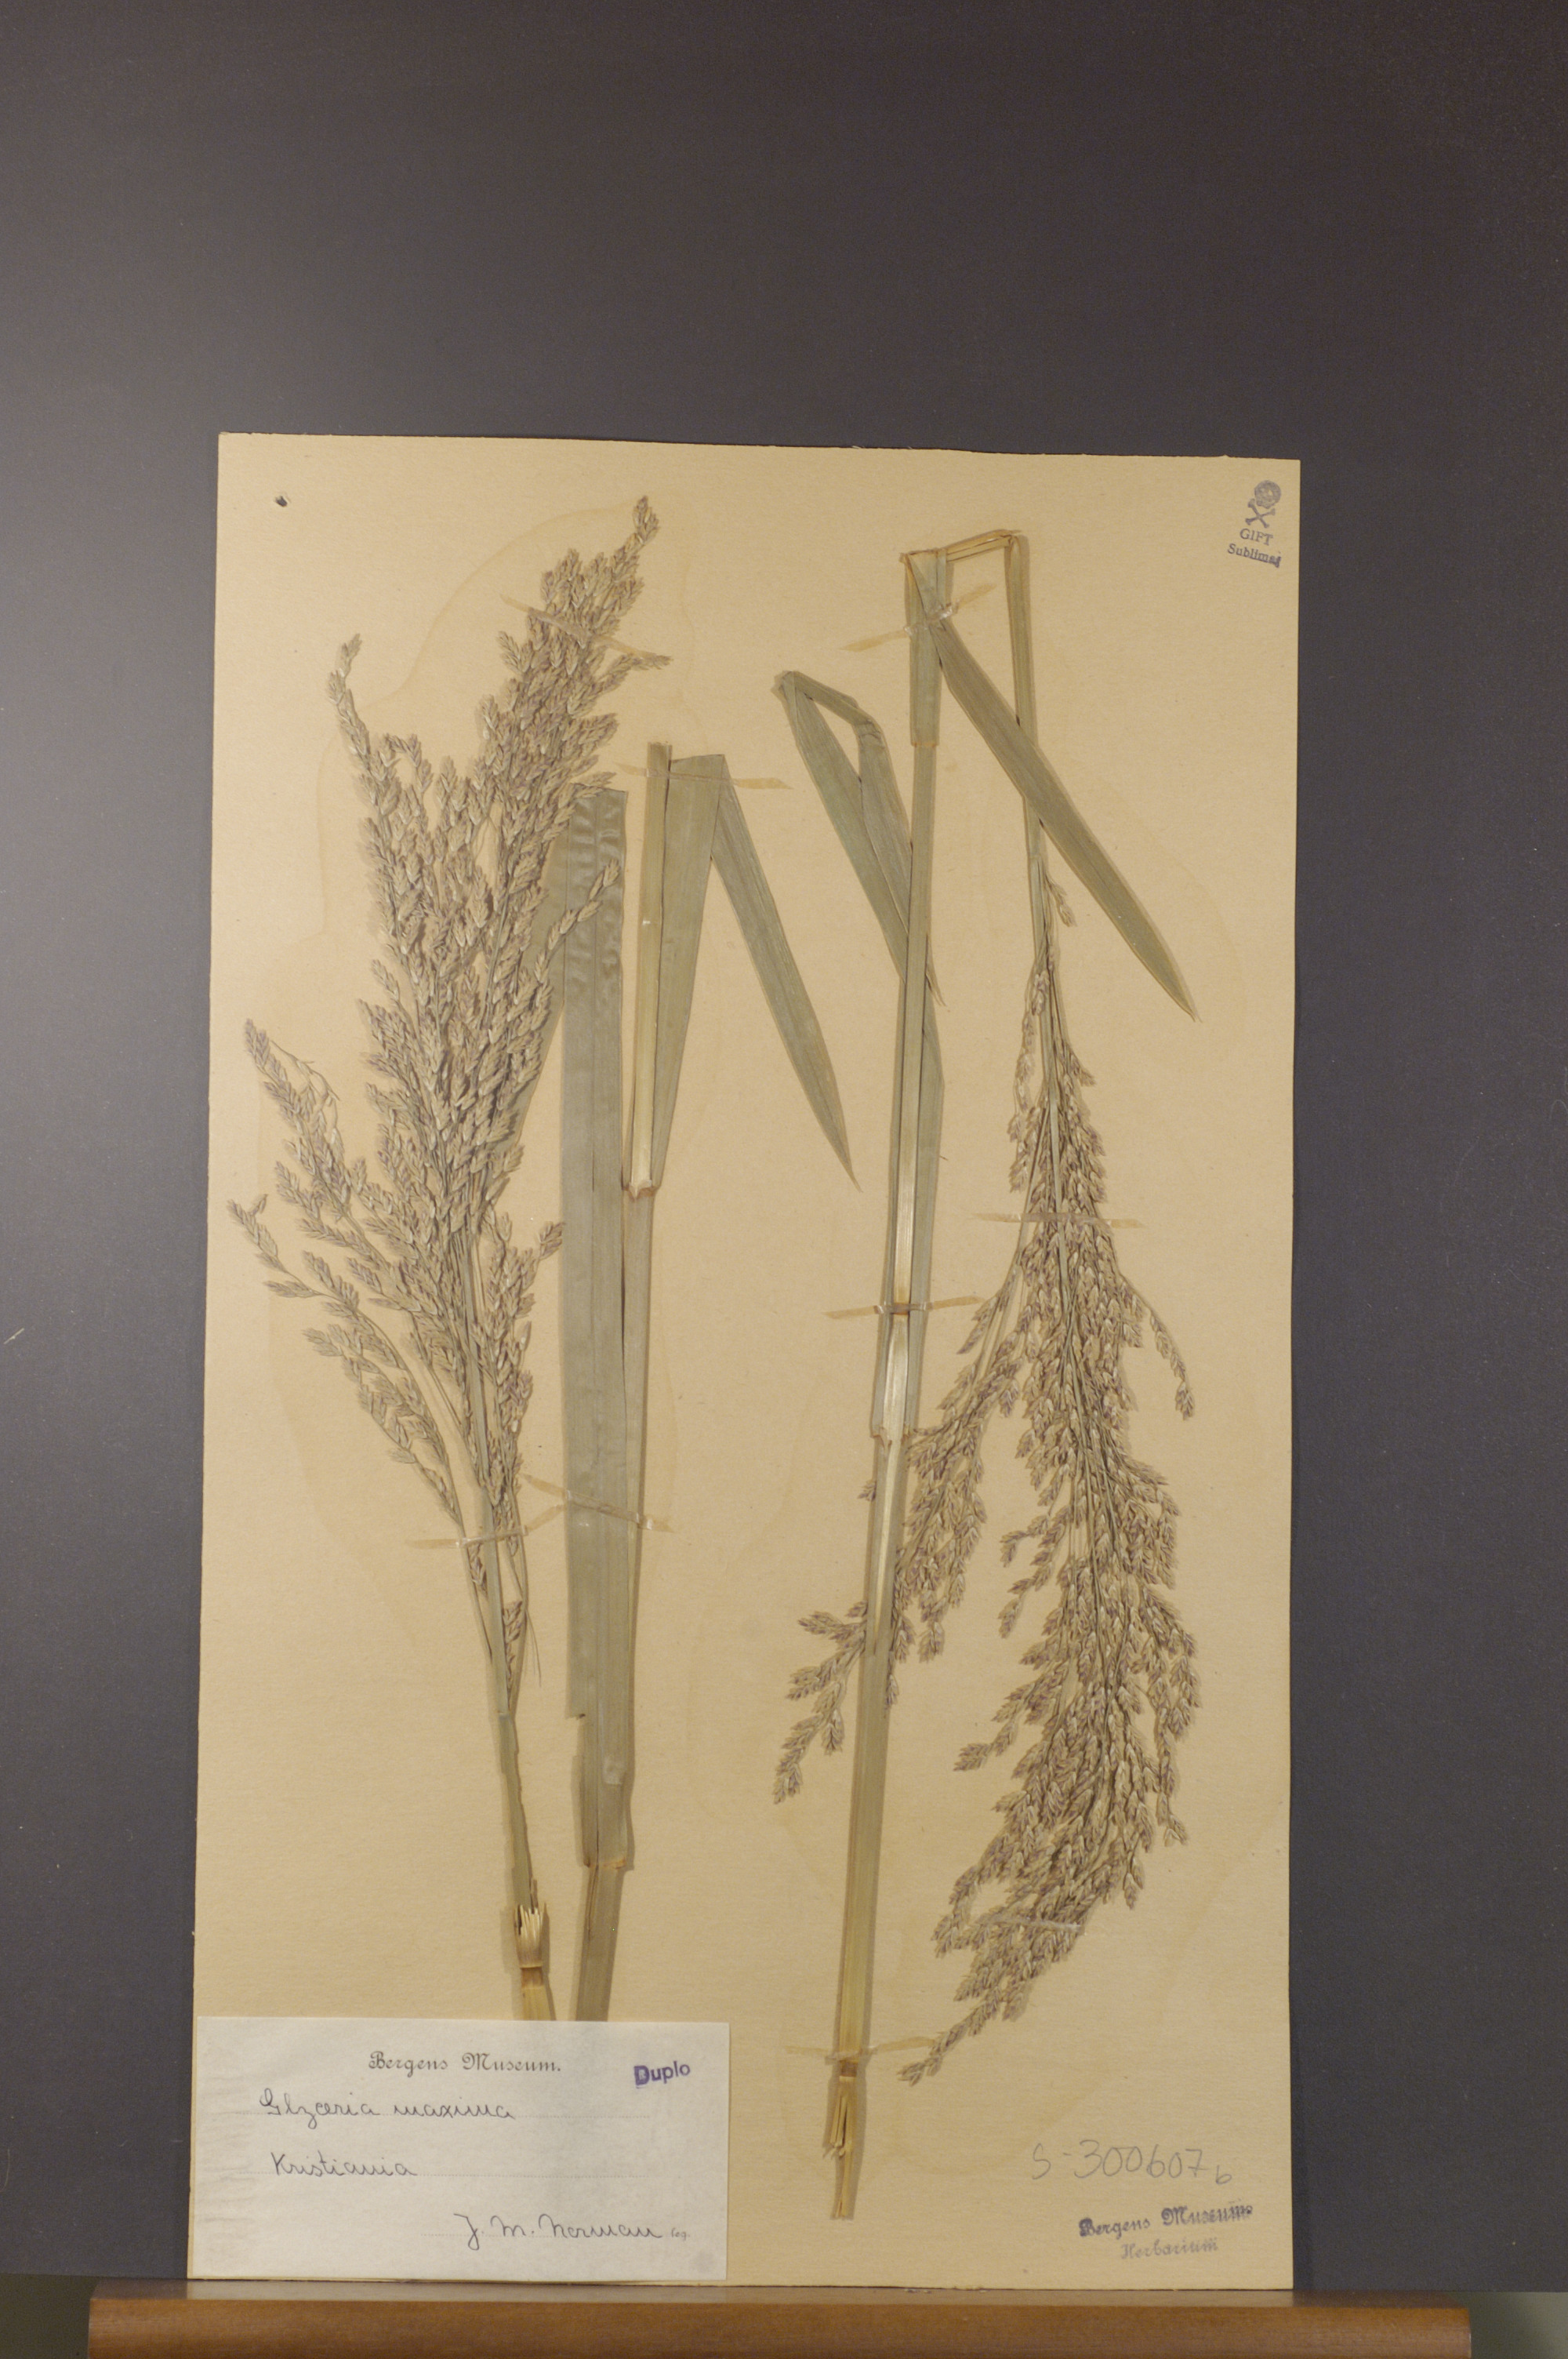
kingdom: Plantae
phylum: Tracheophyta
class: Liliopsida
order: Poales
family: Poaceae
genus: Catabrosa
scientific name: Catabrosa aquatica
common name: Whorl-grass
